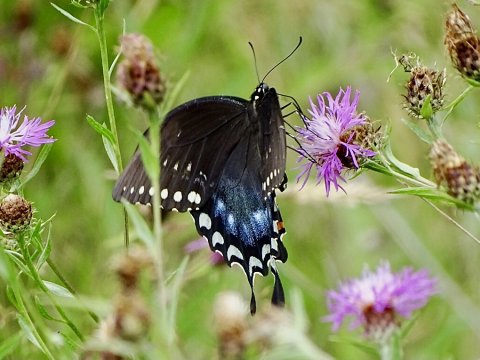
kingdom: Animalia
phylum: Arthropoda
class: Insecta
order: Lepidoptera
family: Papilionidae
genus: Pterourus
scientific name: Pterourus troilus
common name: Spicebush Swallowtail
